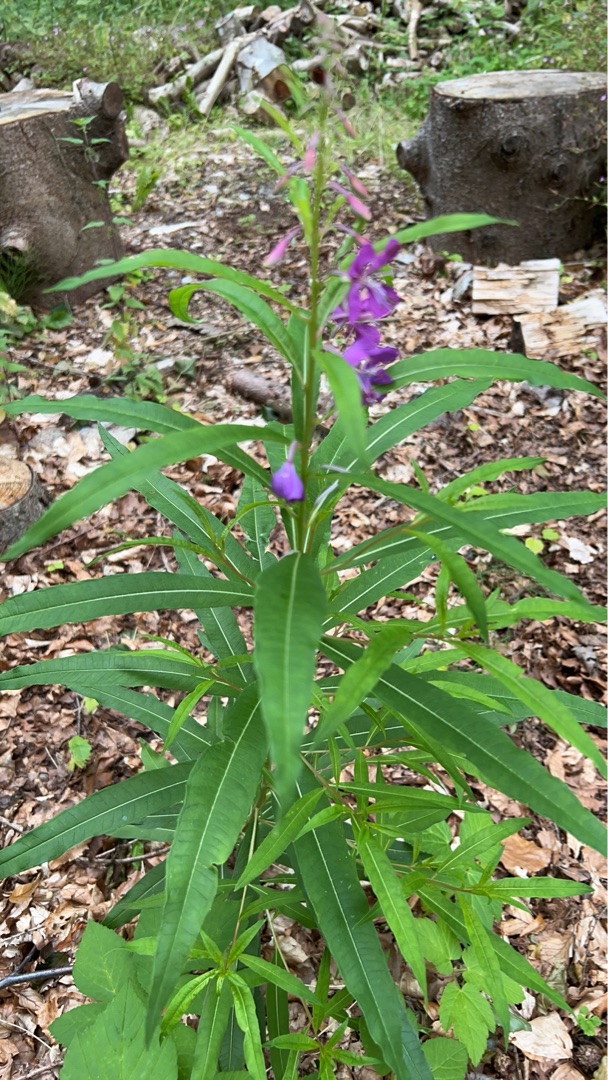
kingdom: Plantae
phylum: Tracheophyta
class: Magnoliopsida
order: Myrtales
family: Onagraceae
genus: Chamaenerion
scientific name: Chamaenerion angustifolium
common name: Gederams
